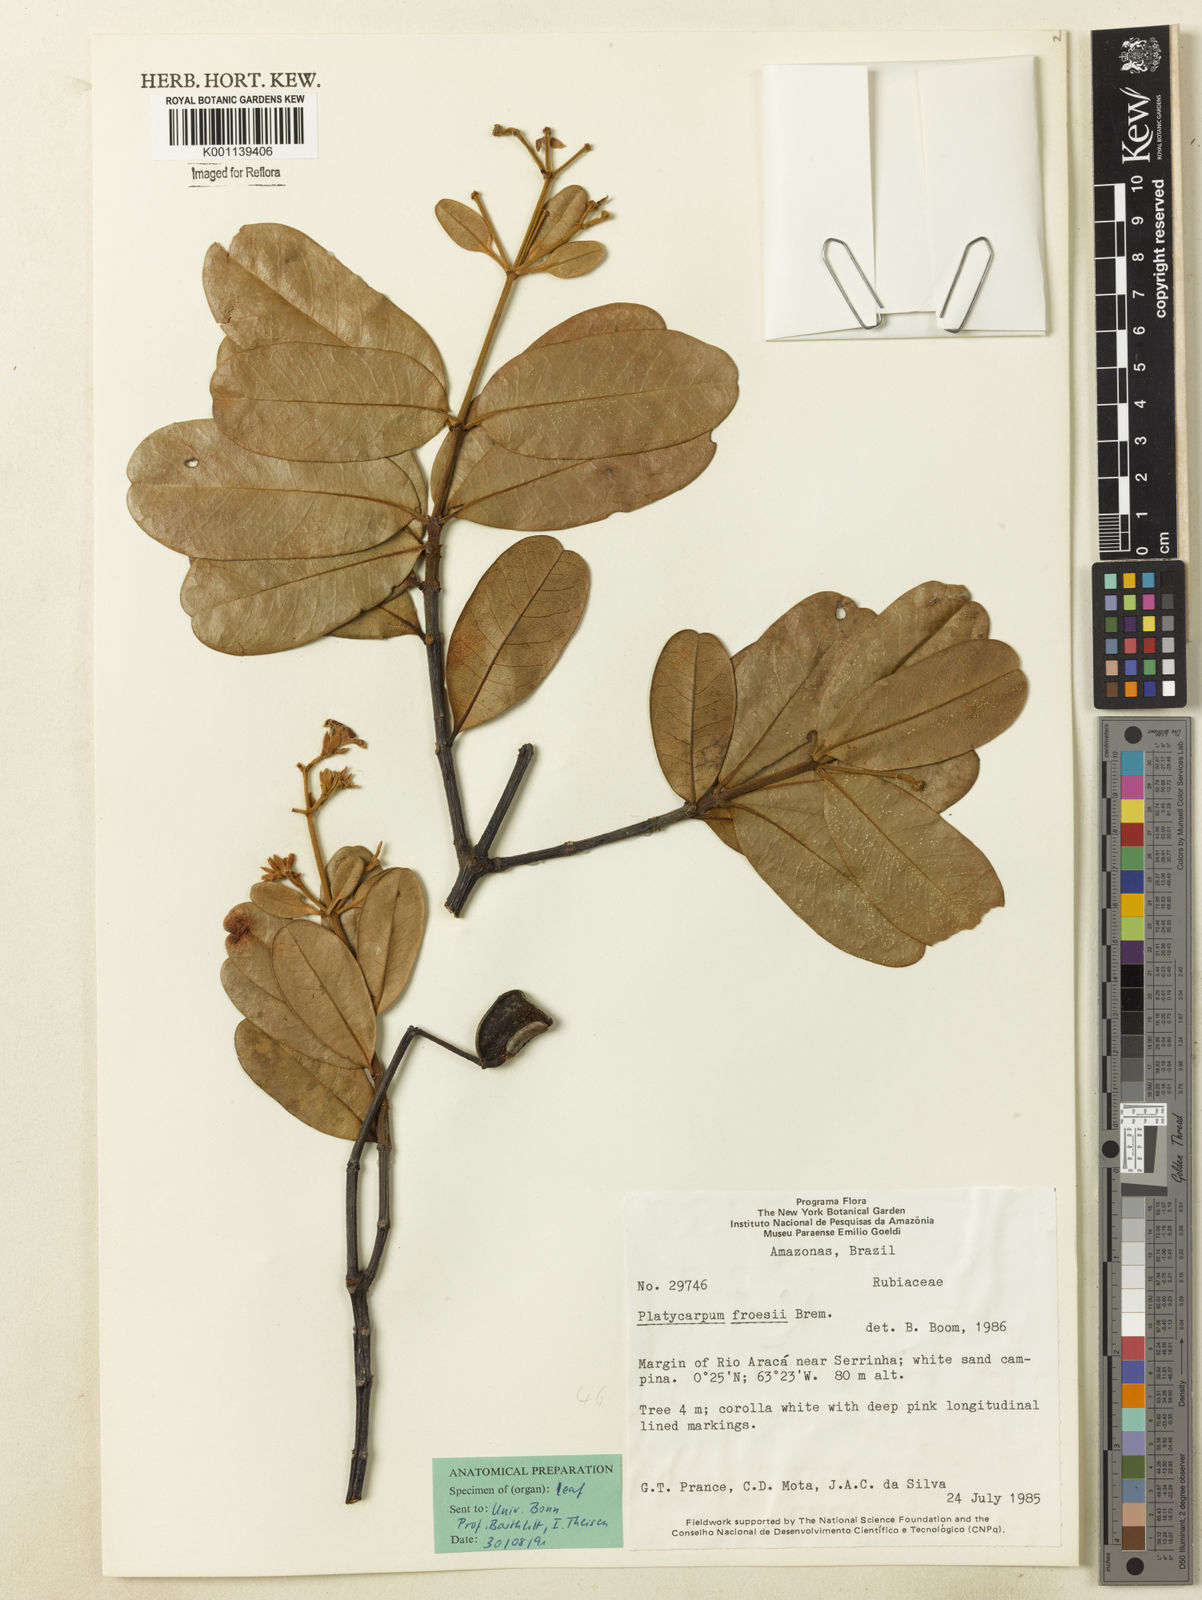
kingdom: Plantae
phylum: Tracheophyta
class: Magnoliopsida
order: Gentianales
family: Rubiaceae
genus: Platycarpum
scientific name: Platycarpum froesii
